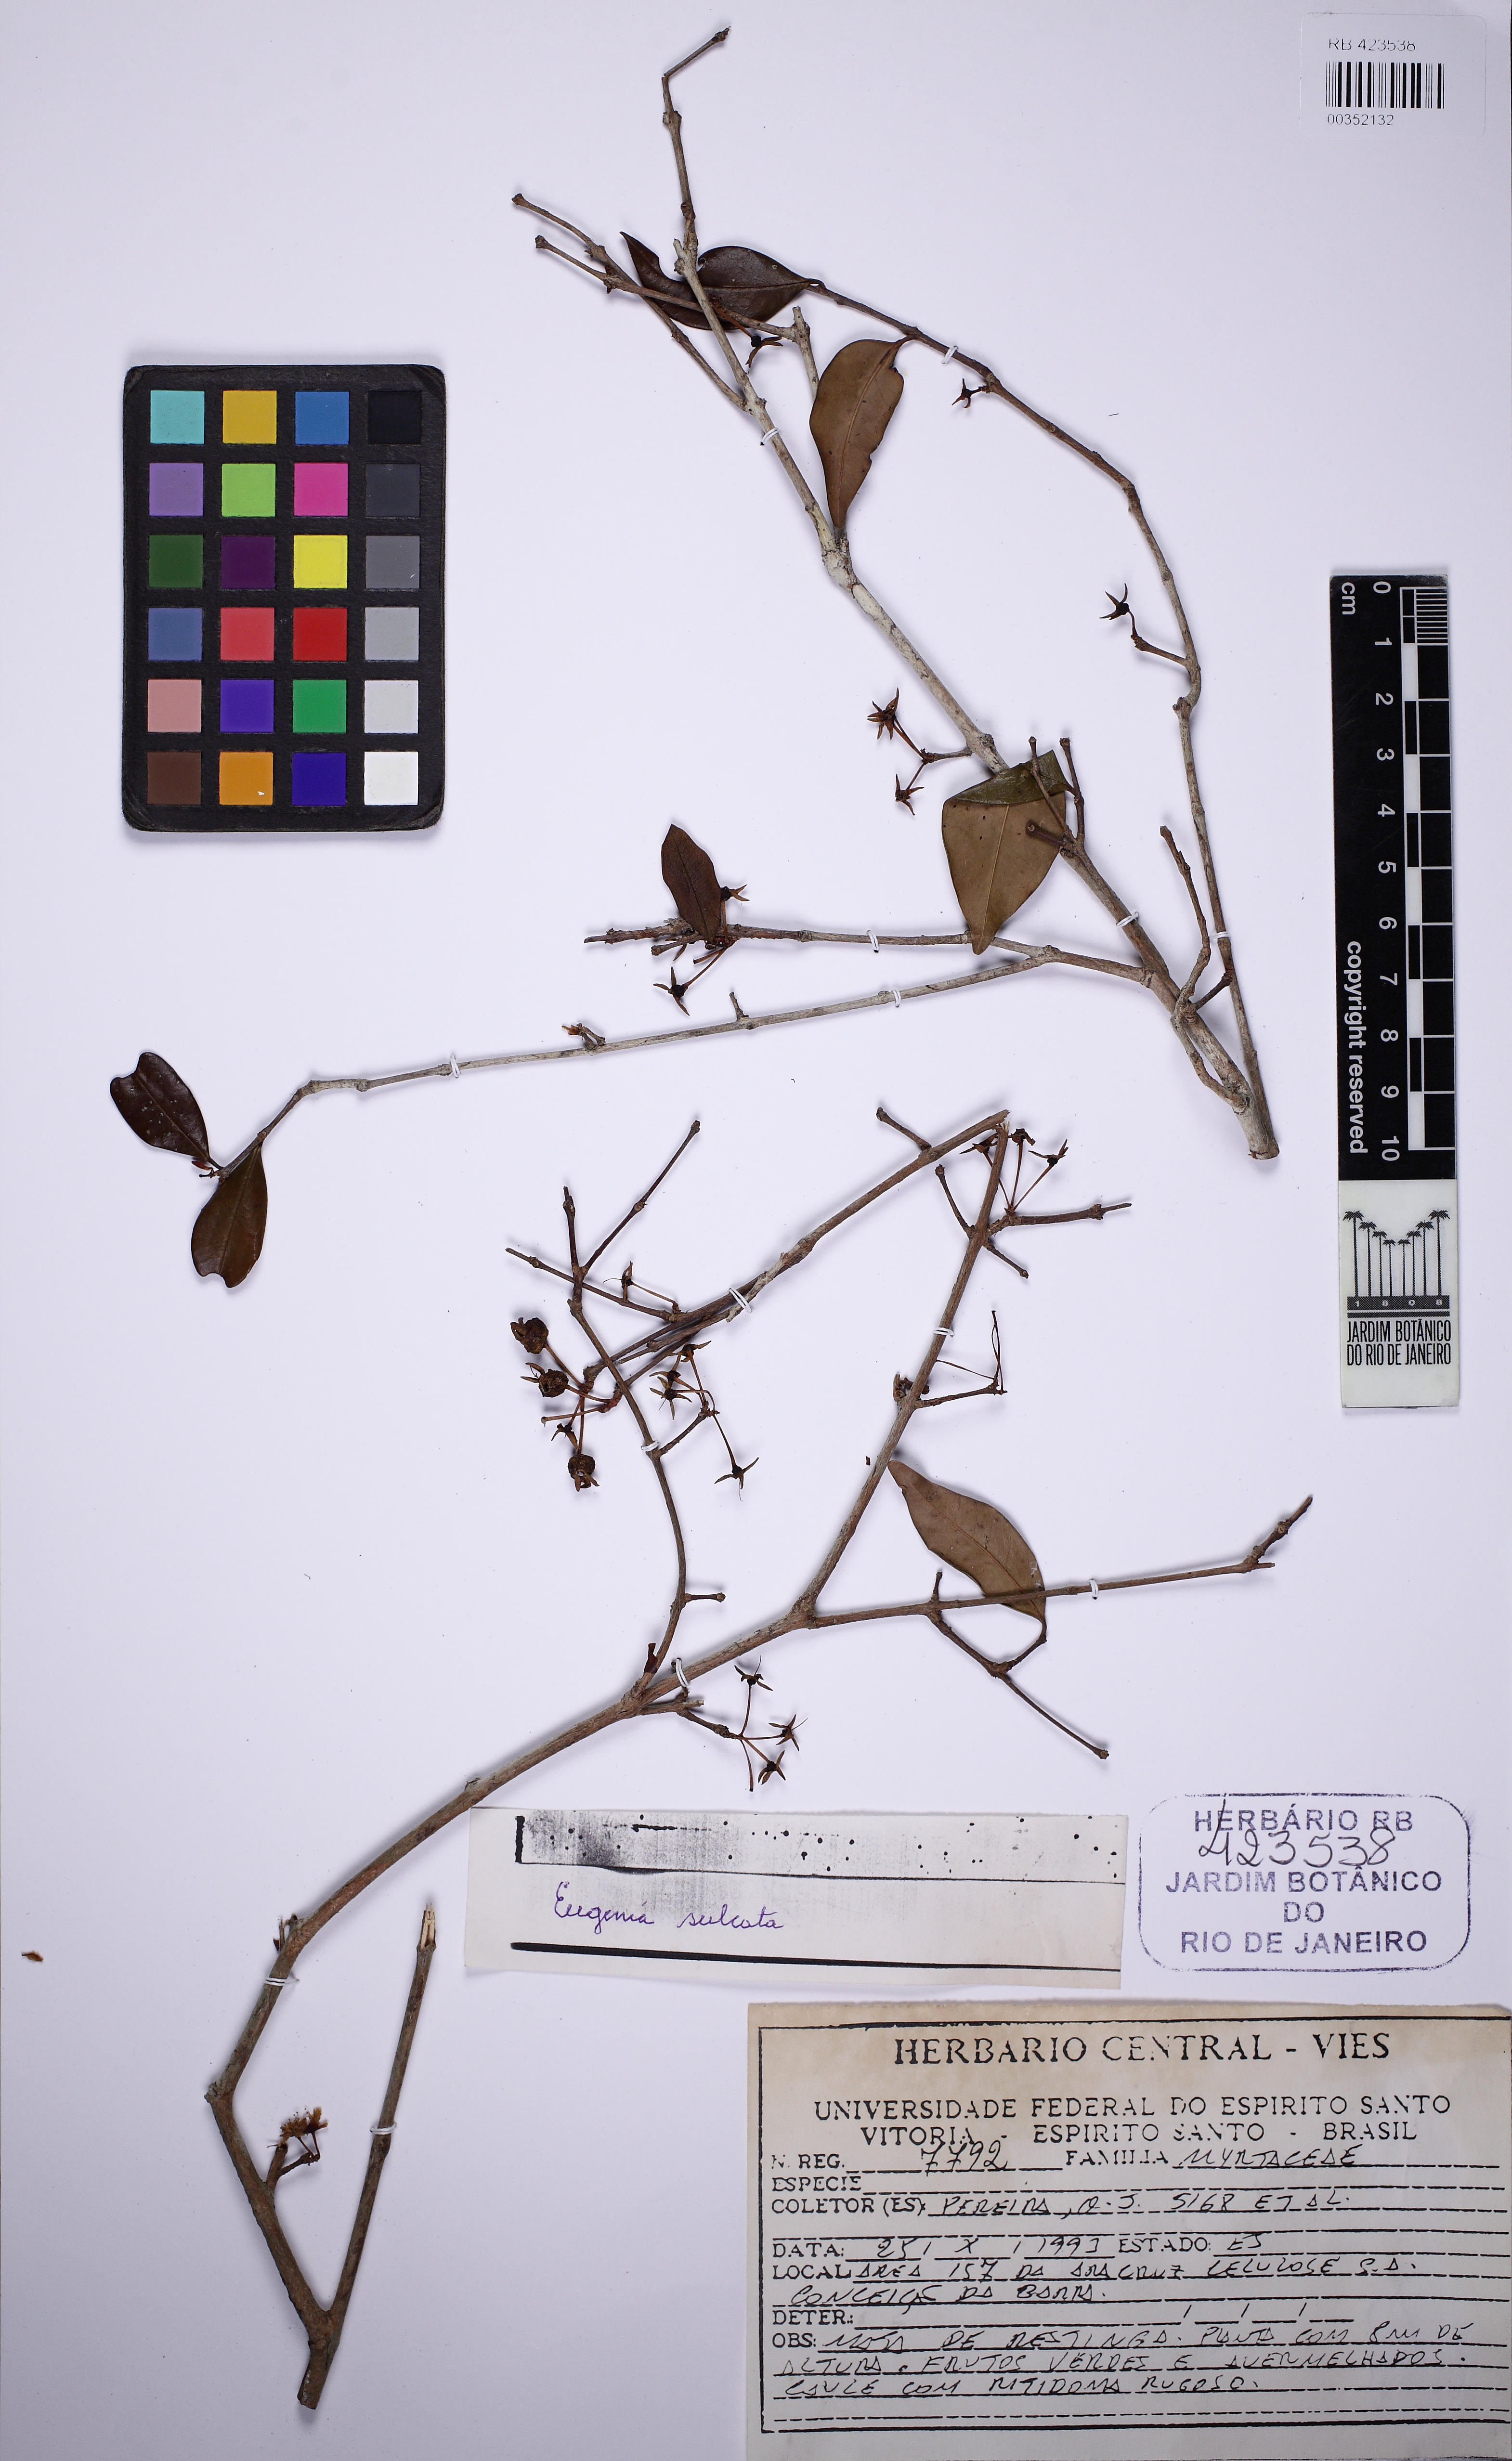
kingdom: Plantae
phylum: Tracheophyta
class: Magnoliopsida
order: Myrtales
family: Myrtaceae
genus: Eugenia
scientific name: Eugenia sulcata
